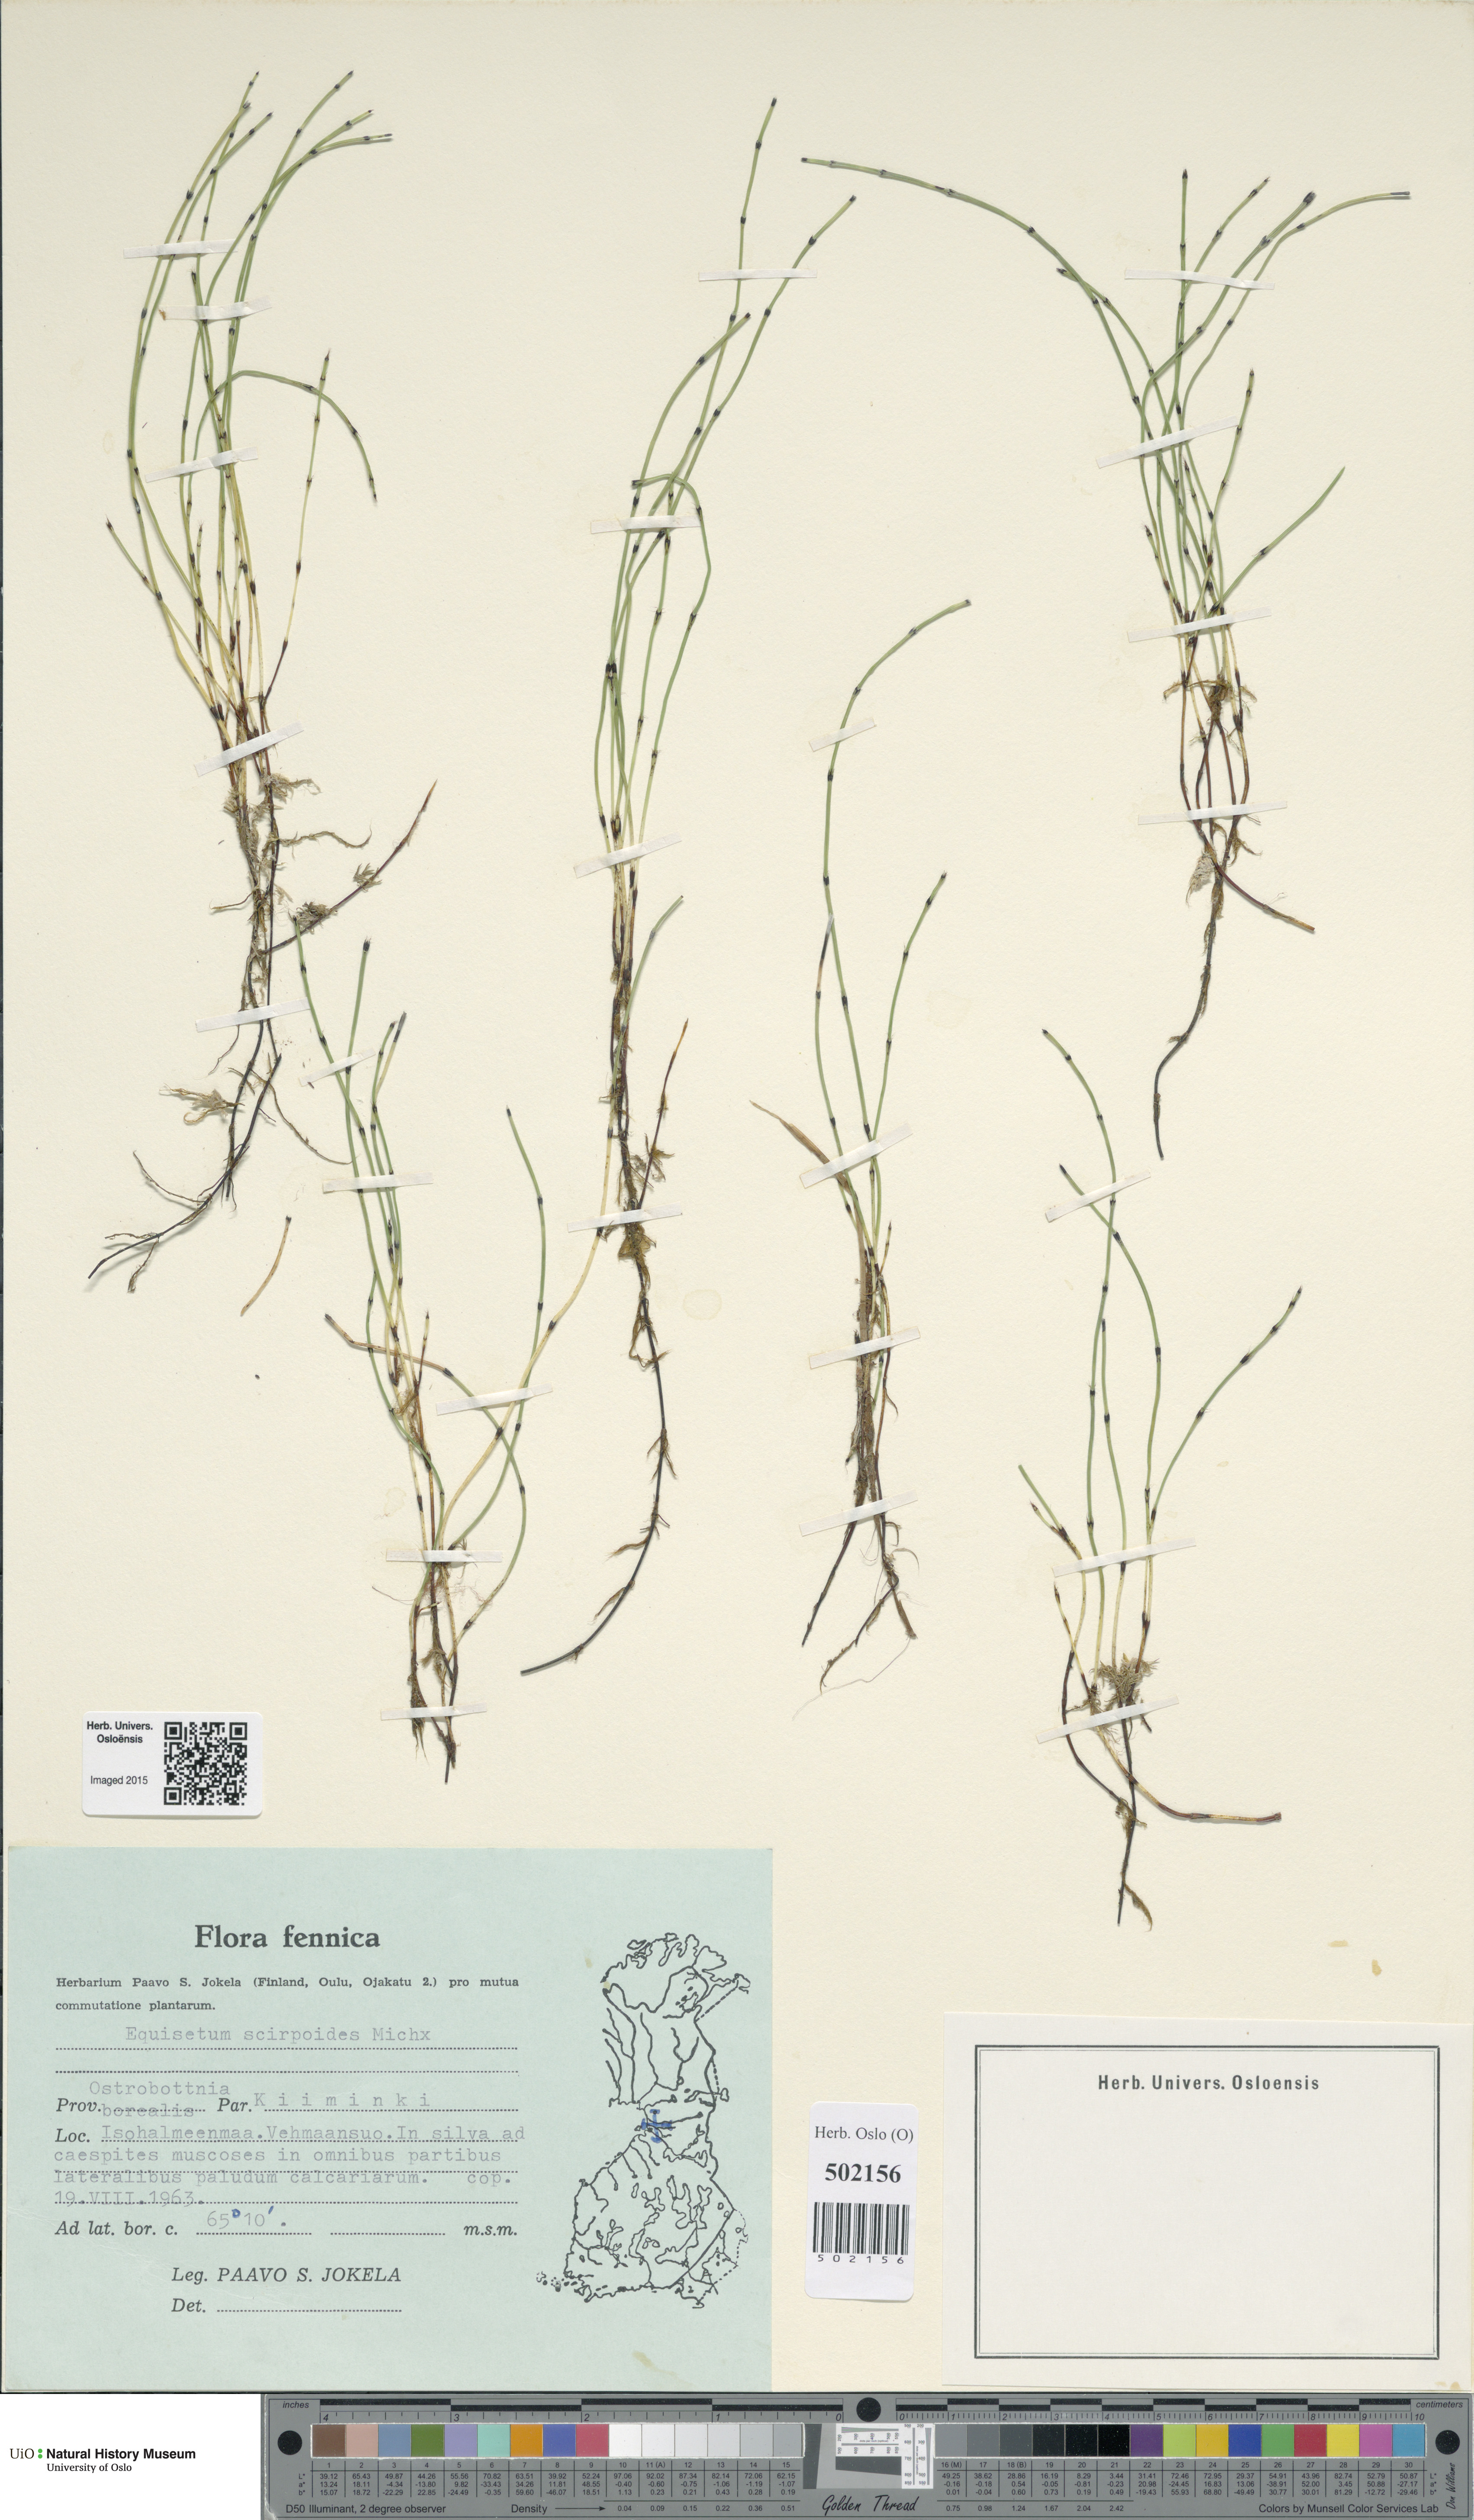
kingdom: Plantae
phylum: Tracheophyta
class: Polypodiopsida
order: Equisetales
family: Equisetaceae
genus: Equisetum
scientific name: Equisetum scirpoides
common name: Delicate horsetail
